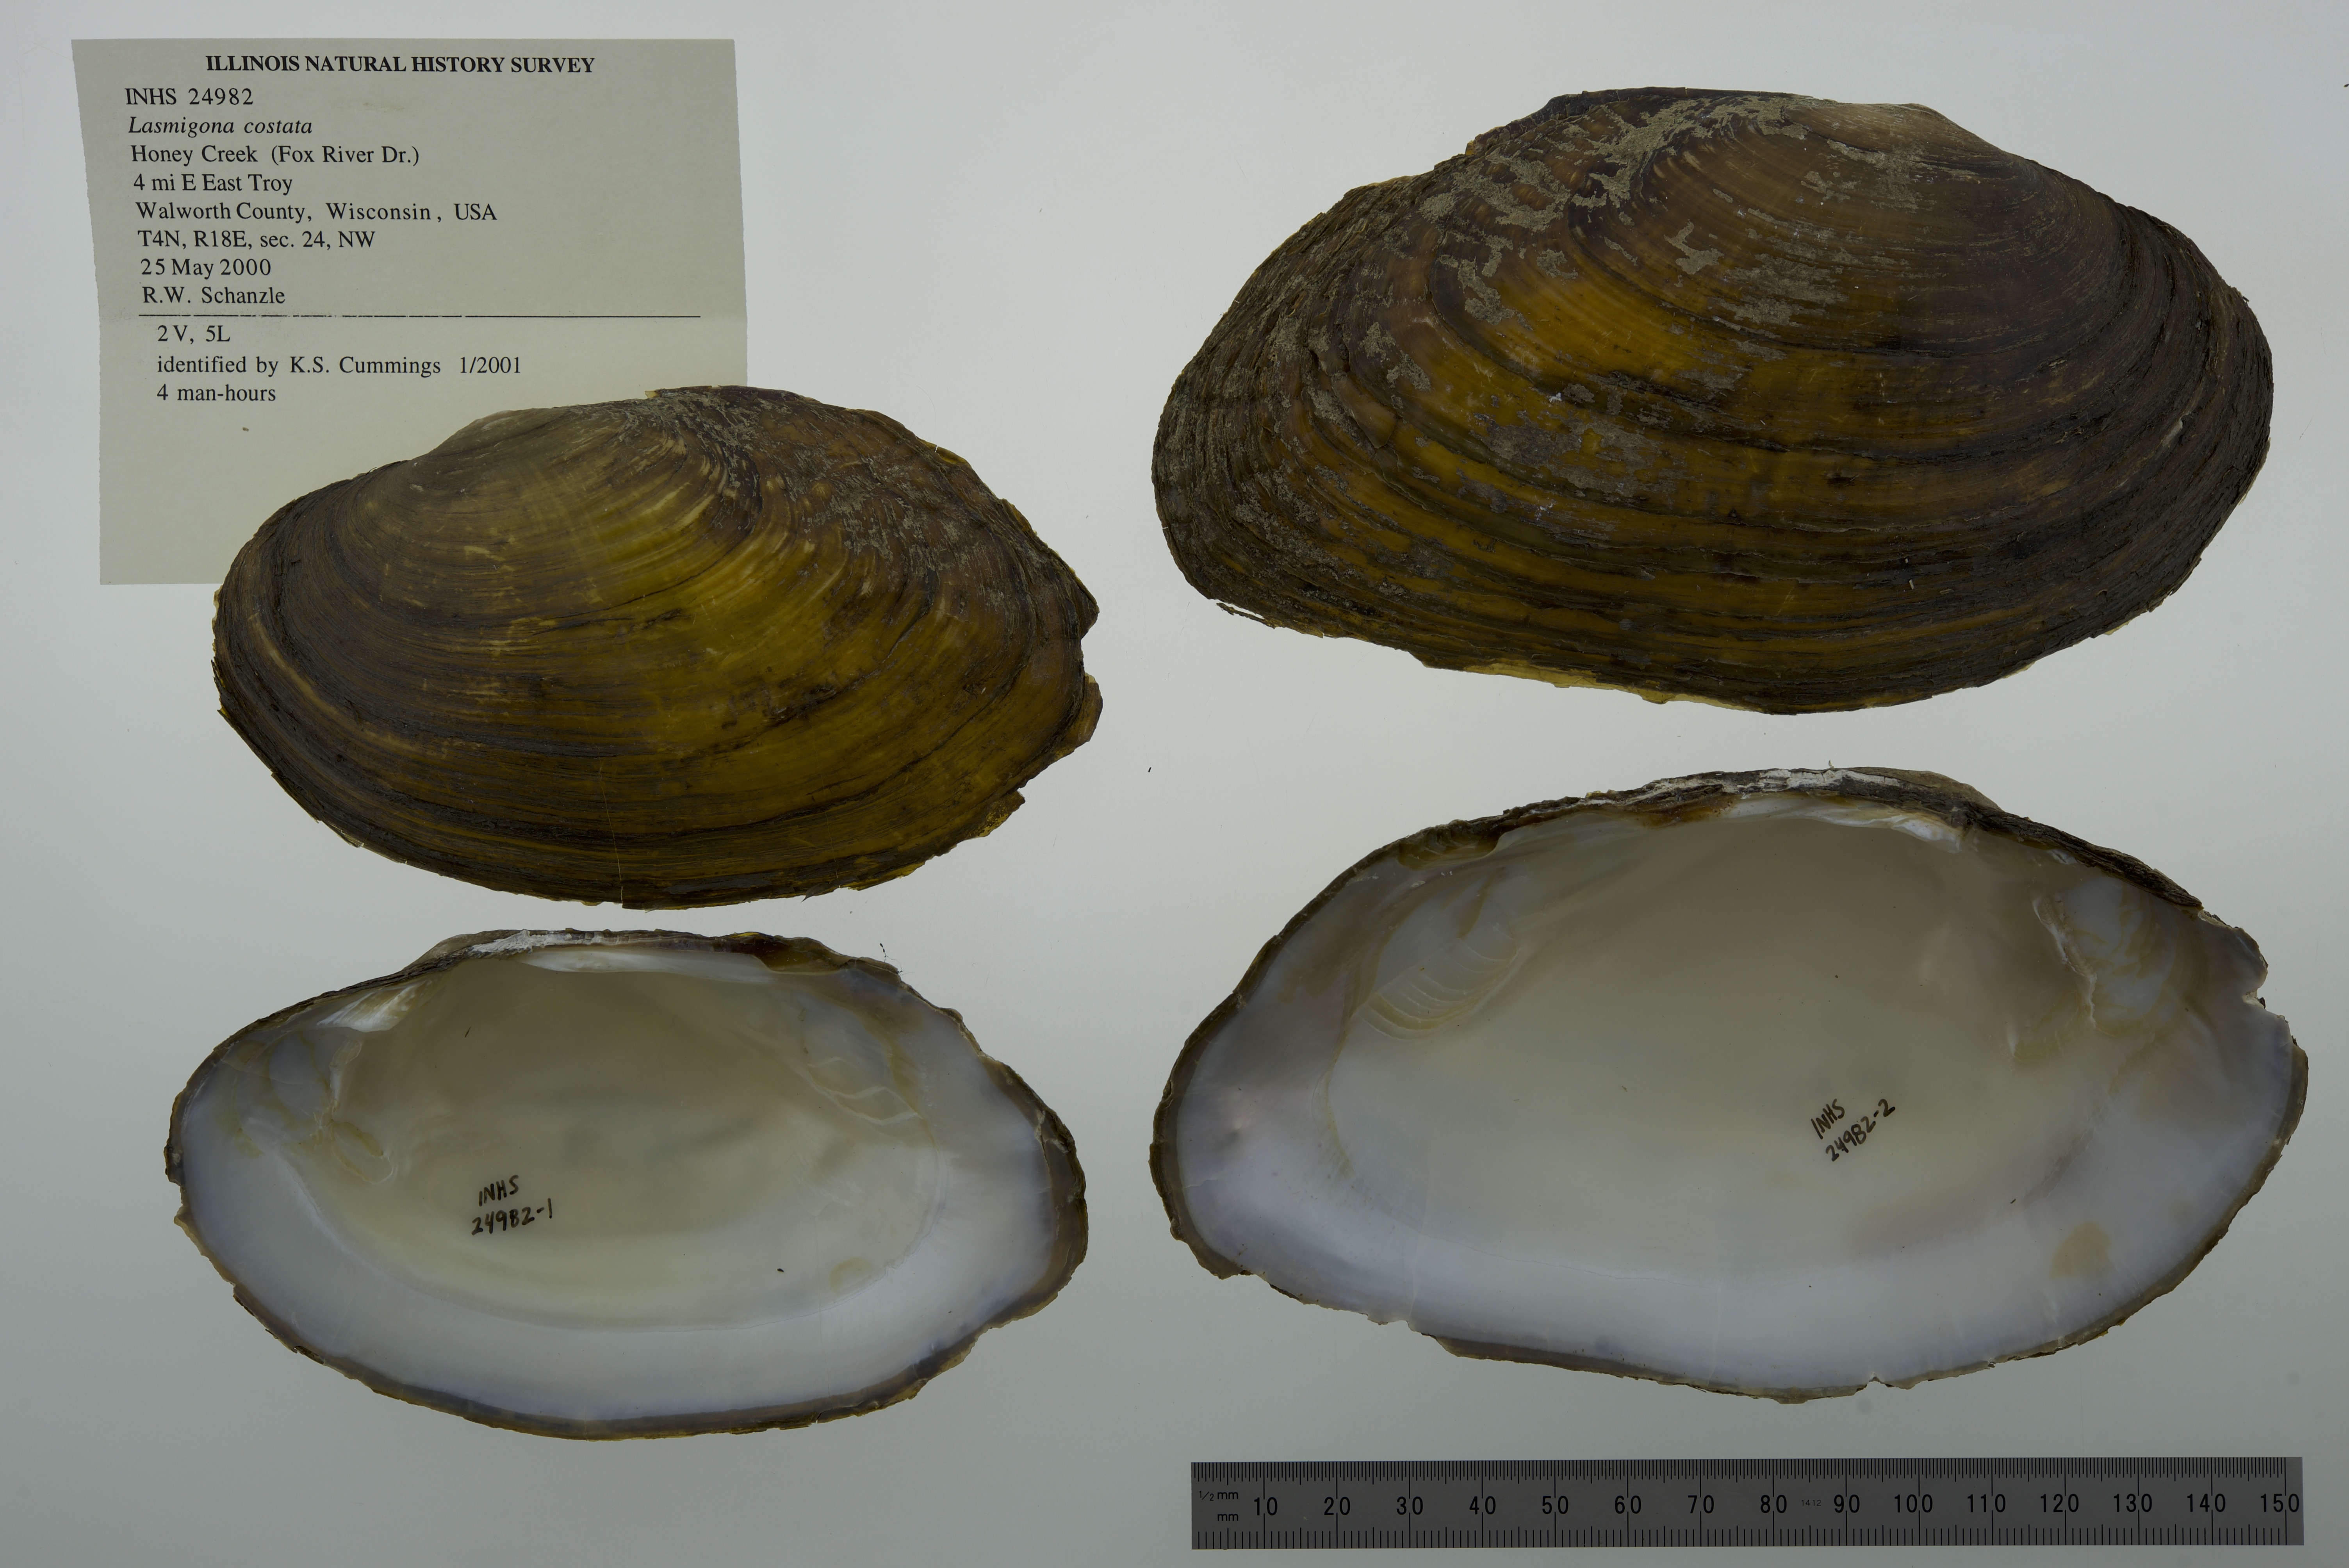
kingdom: Animalia
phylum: Mollusca
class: Bivalvia
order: Unionida
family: Unionidae
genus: Lasmigona
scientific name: Lasmigona costata
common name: Flutedshell
